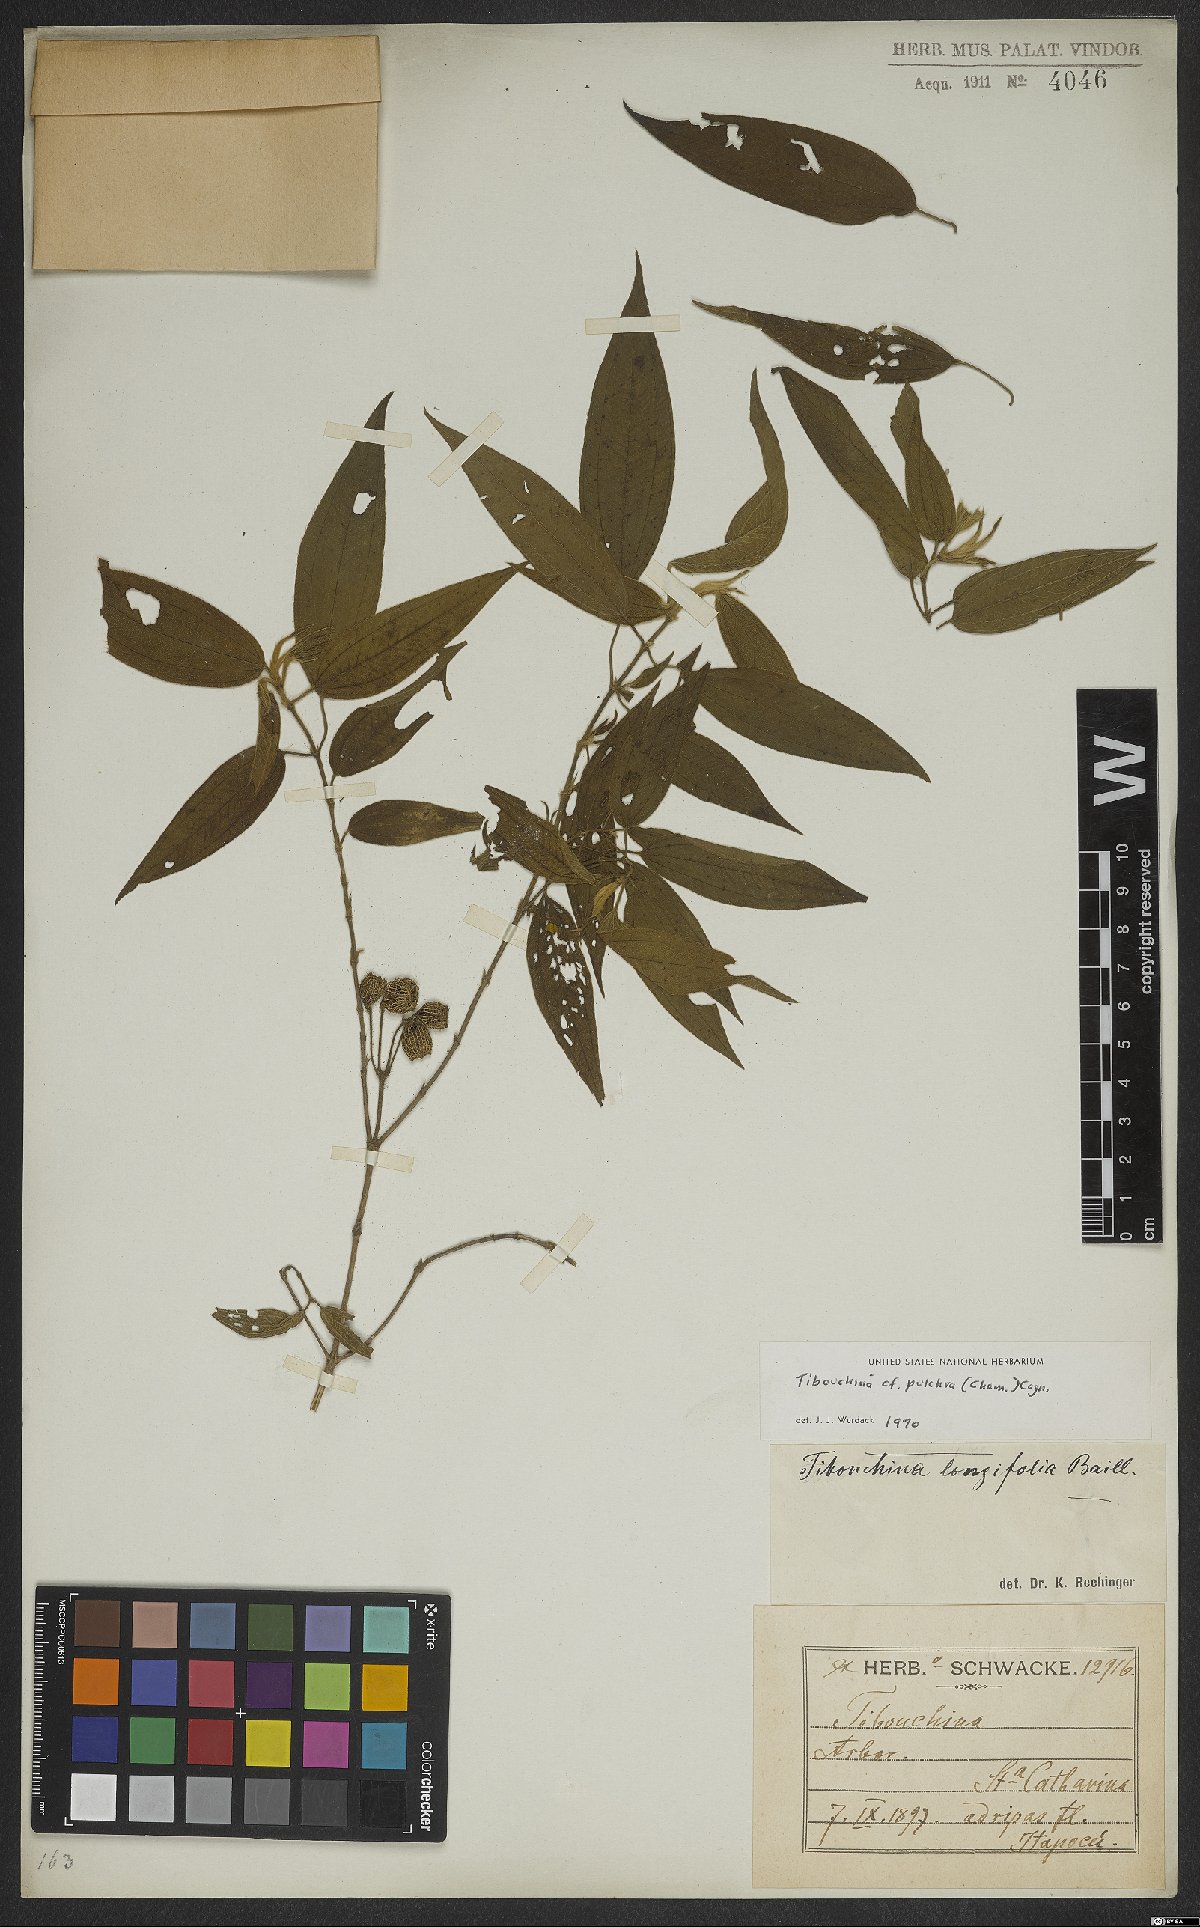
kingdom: Plantae
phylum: Tracheophyta
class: Magnoliopsida
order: Myrtales
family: Melastomataceae
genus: Pleroma
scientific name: Pleroma raddianum
